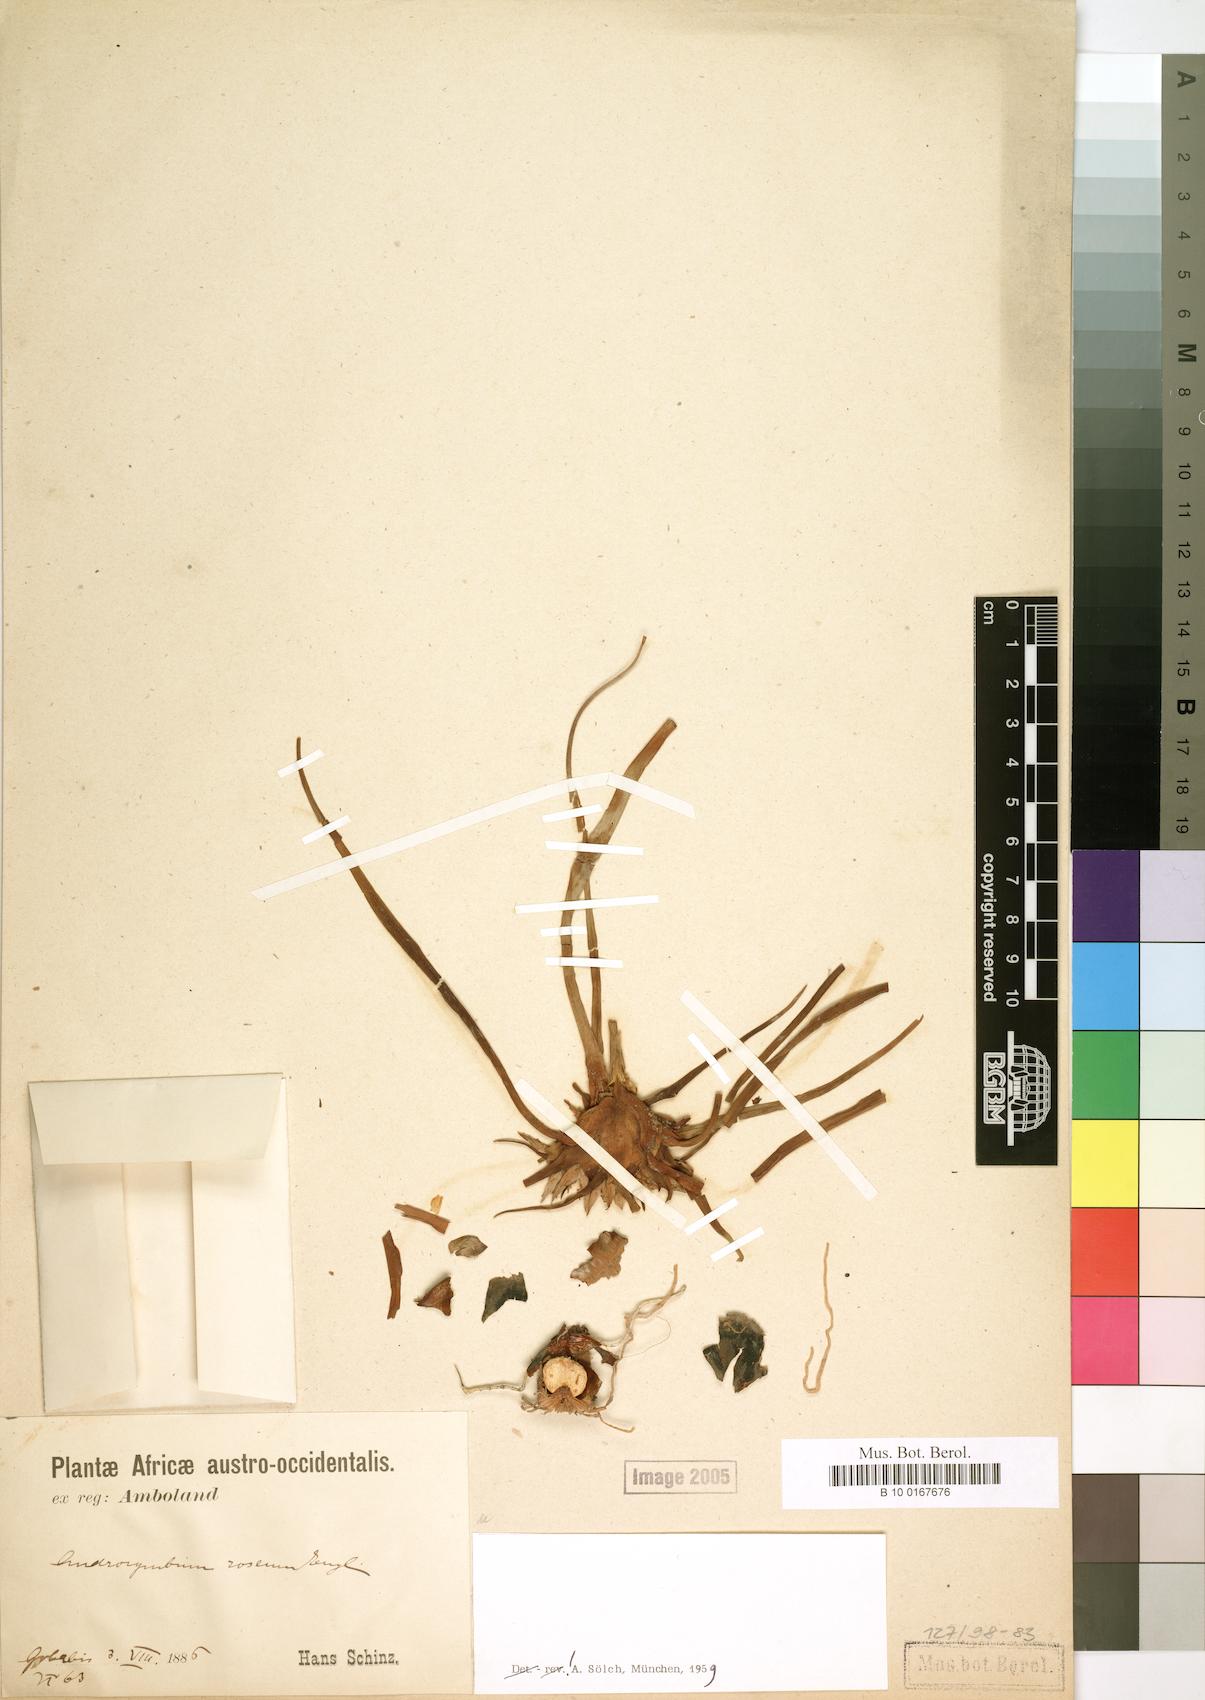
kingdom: Plantae
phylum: Tracheophyta
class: Liliopsida
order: Liliales
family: Colchicaceae
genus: Colchicum
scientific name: Colchicum roseum
